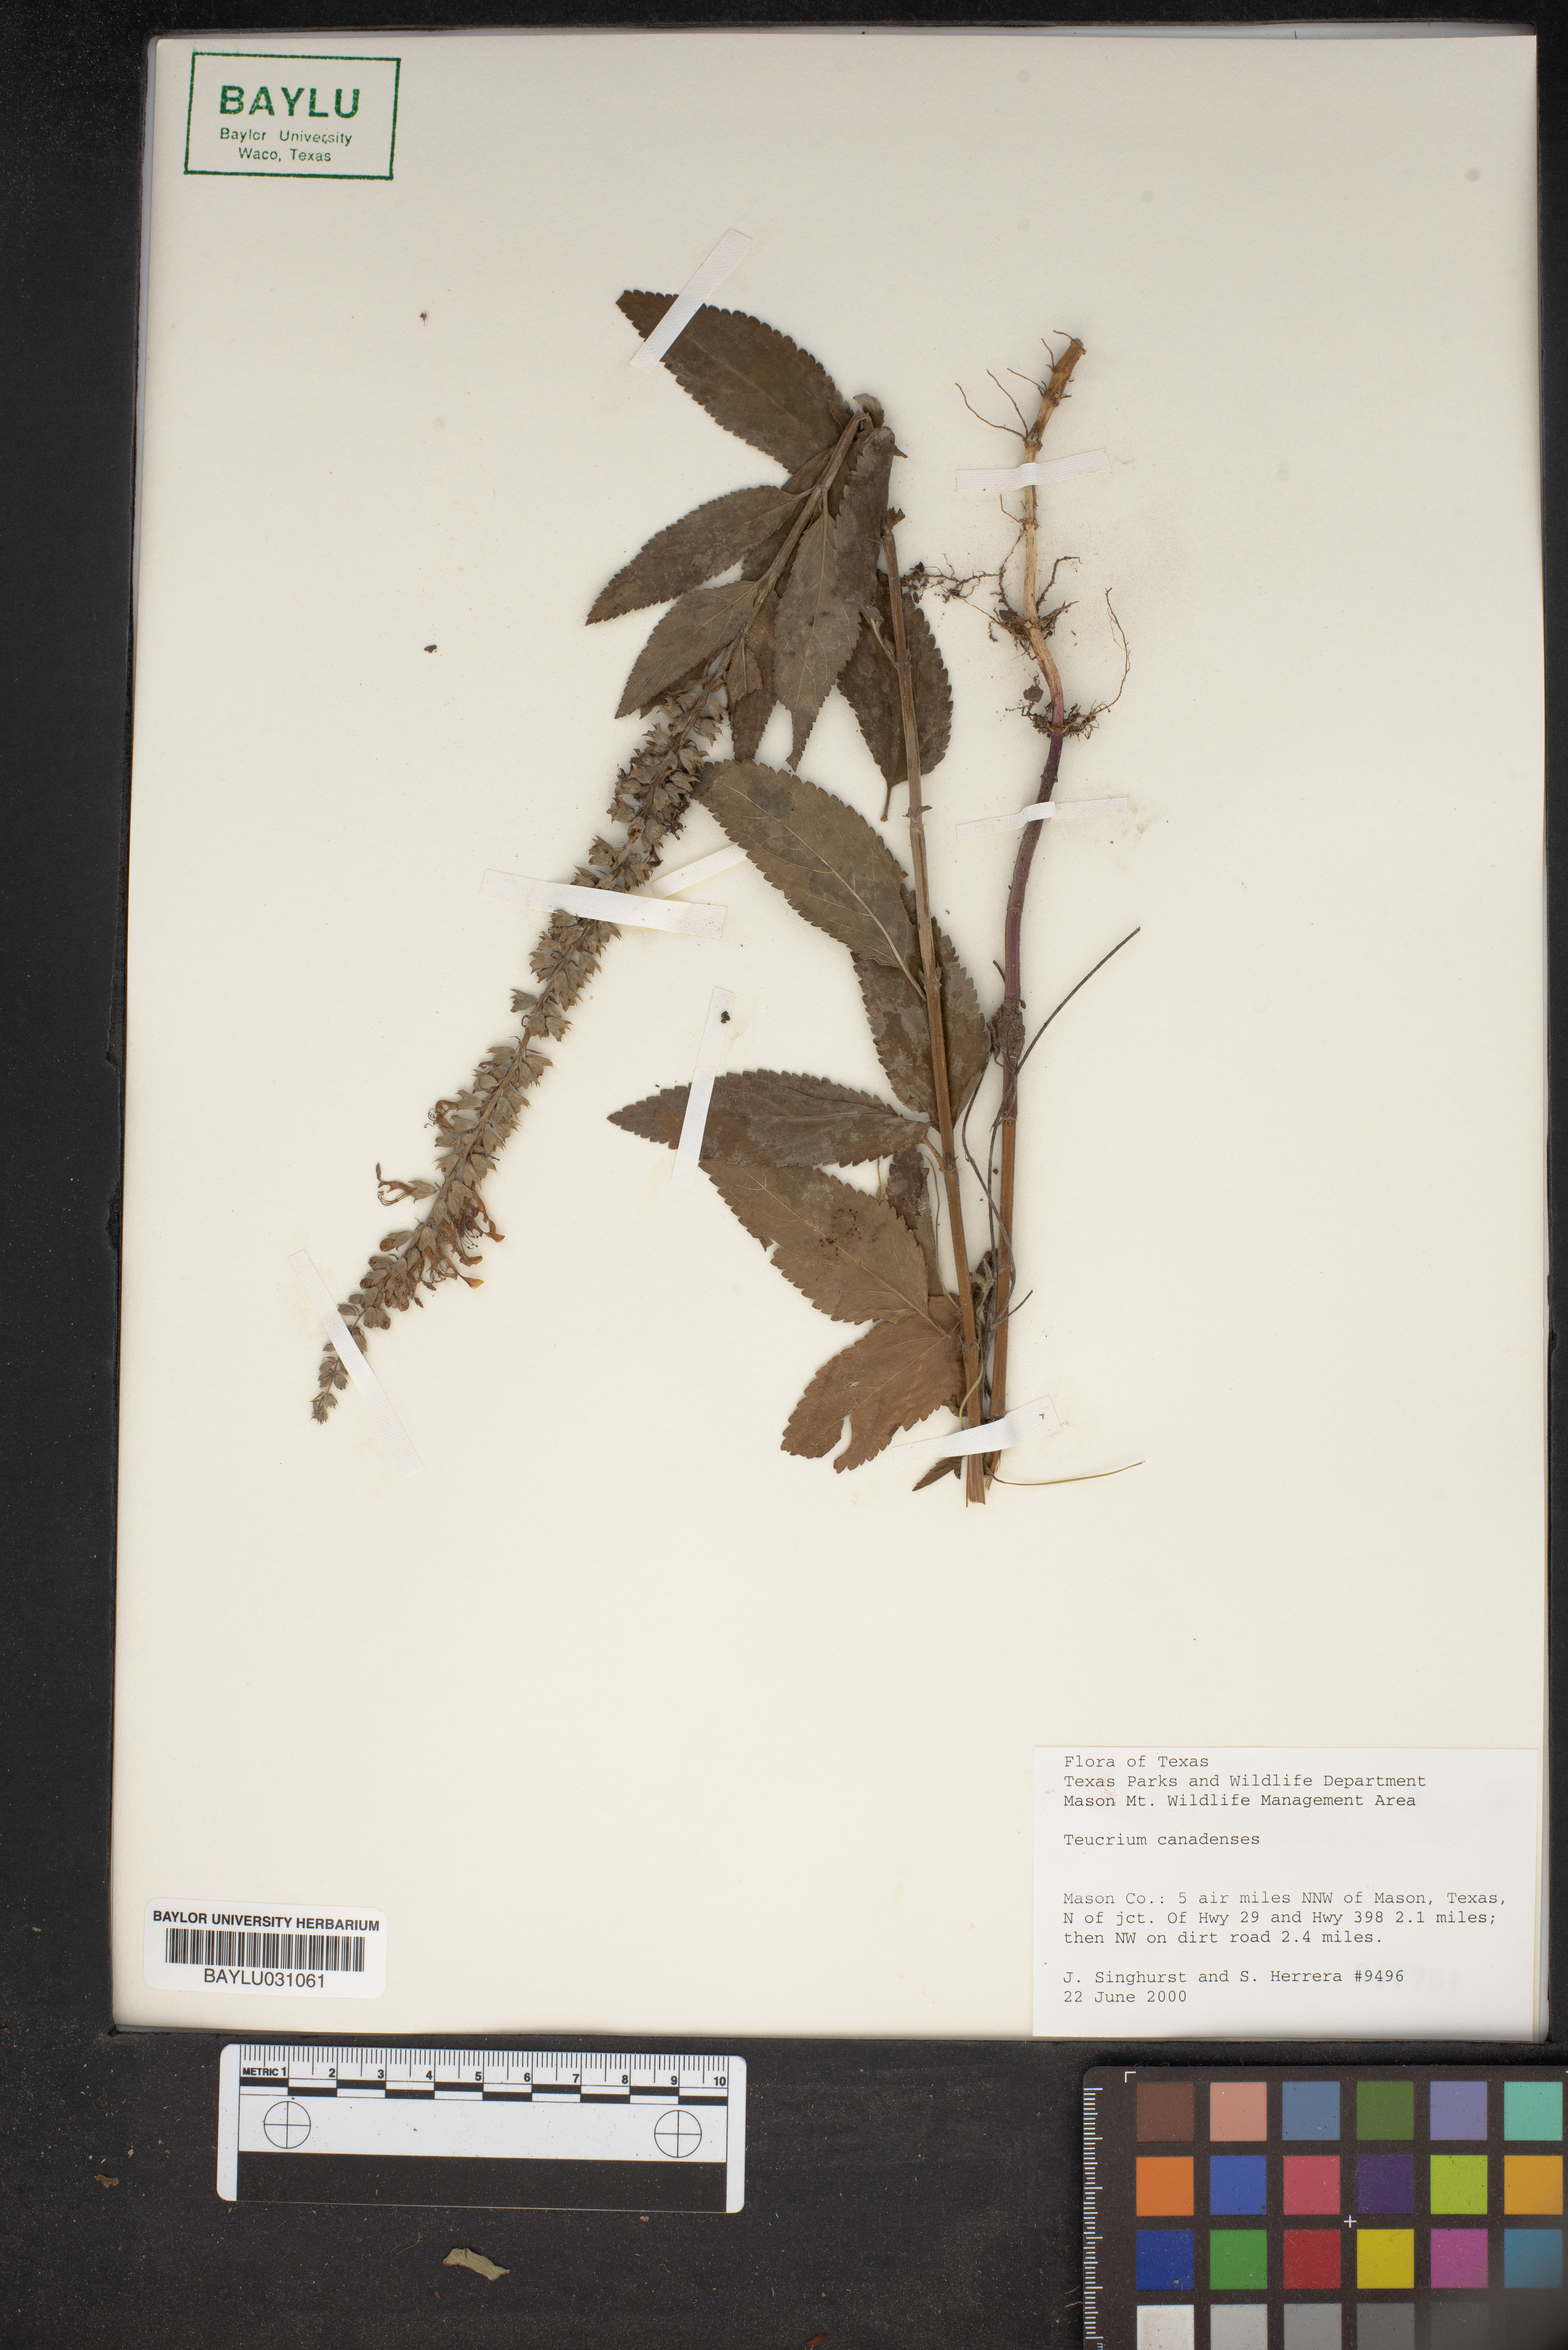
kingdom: Plantae
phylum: Tracheophyta
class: Magnoliopsida
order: Lamiales
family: Lamiaceae
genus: Teucrium
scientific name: Teucrium canadense
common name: American germander
